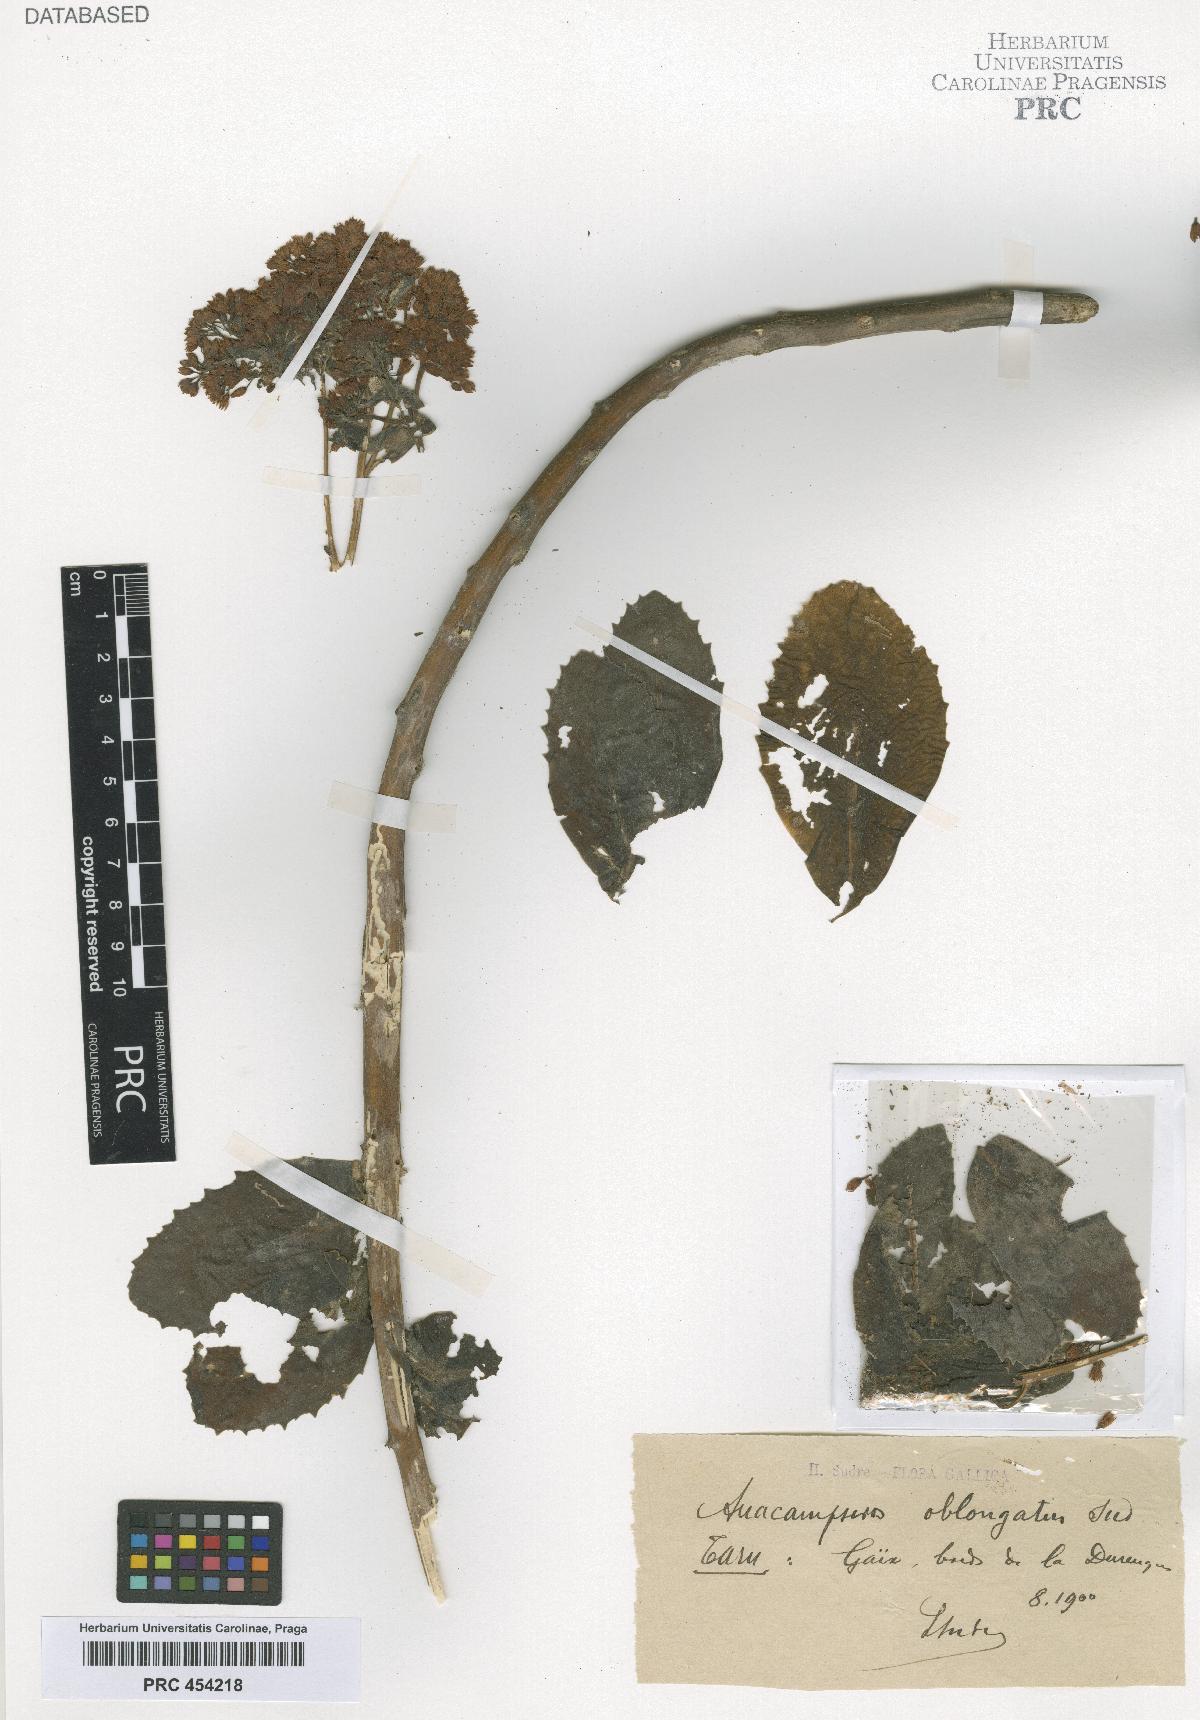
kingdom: Plantae
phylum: Tracheophyta
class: Magnoliopsida
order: Saxifragales
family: Crassulaceae
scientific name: Crassulaceae
